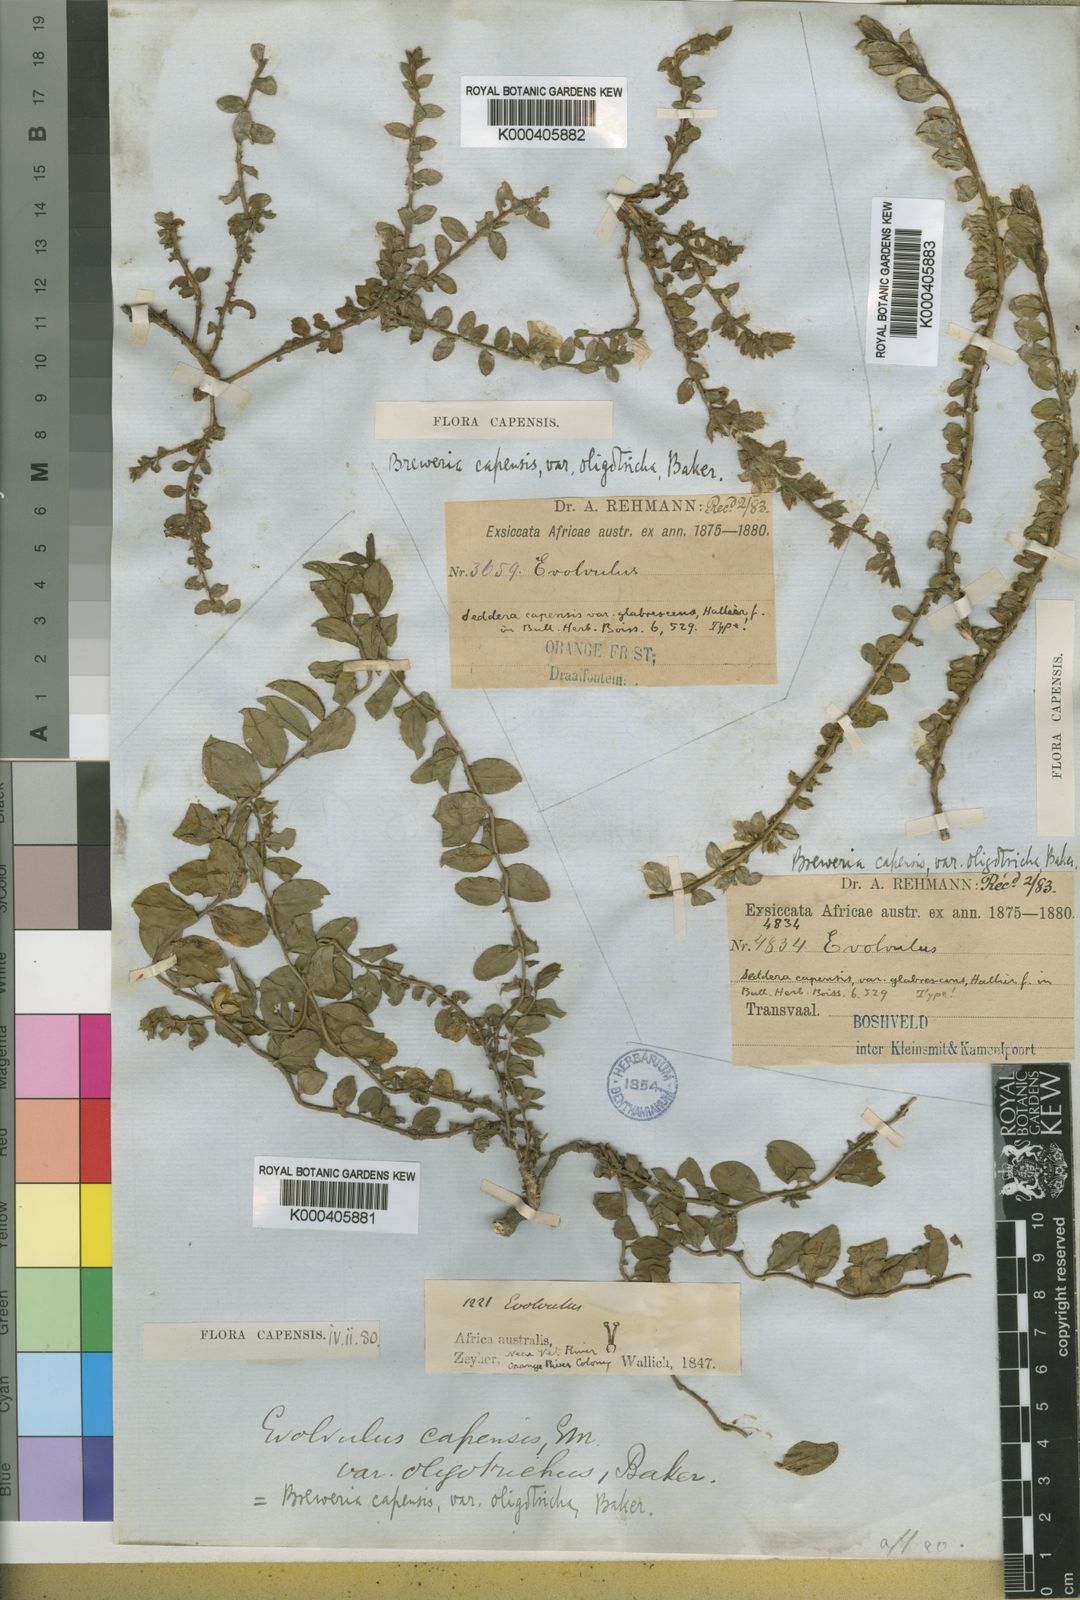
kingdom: Plantae
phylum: Tracheophyta
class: Magnoliopsida
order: Solanales
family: Convolvulaceae
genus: Seddera
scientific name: Seddera capensis
